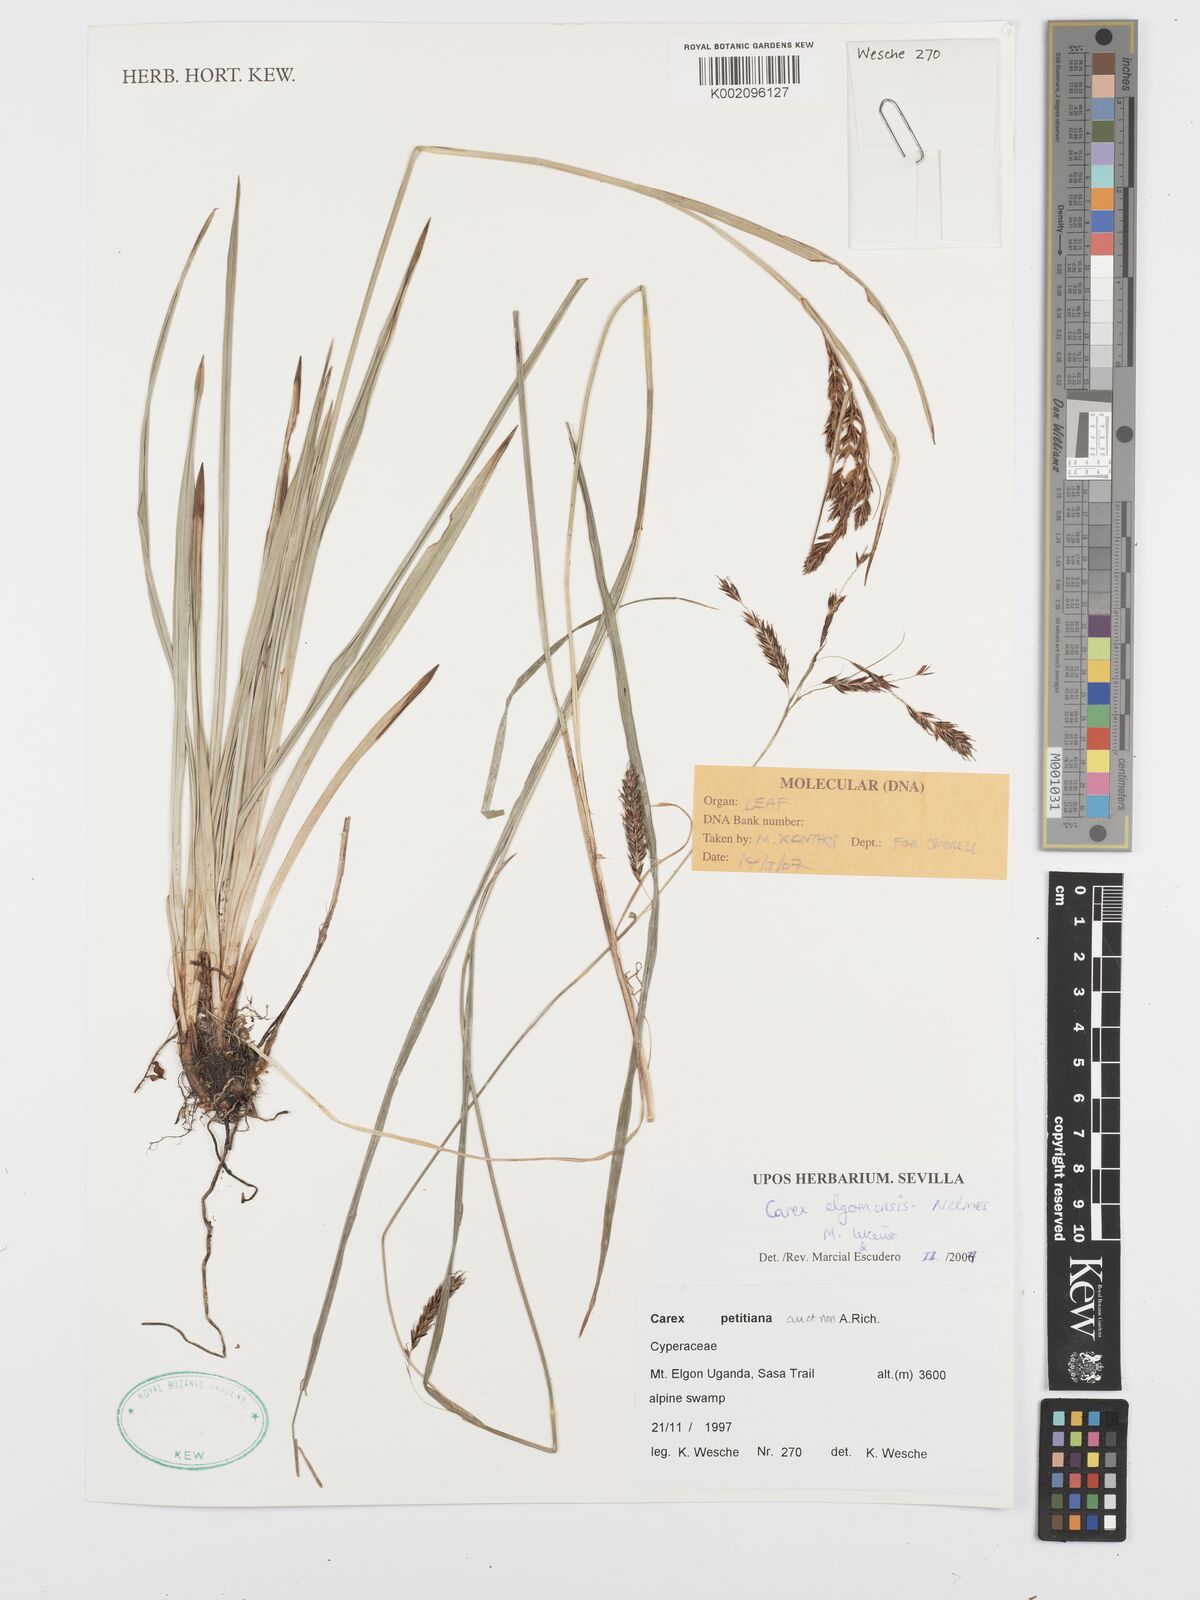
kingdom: Plantae
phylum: Tracheophyta
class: Liliopsida
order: Poales
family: Cyperaceae
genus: Carex
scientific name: Carex elgonensis
